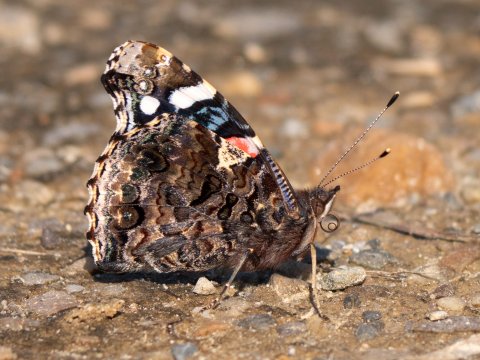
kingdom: Animalia
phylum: Arthropoda
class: Insecta
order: Lepidoptera
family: Nymphalidae
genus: Vanessa
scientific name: Vanessa atalanta
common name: Red Admiral
